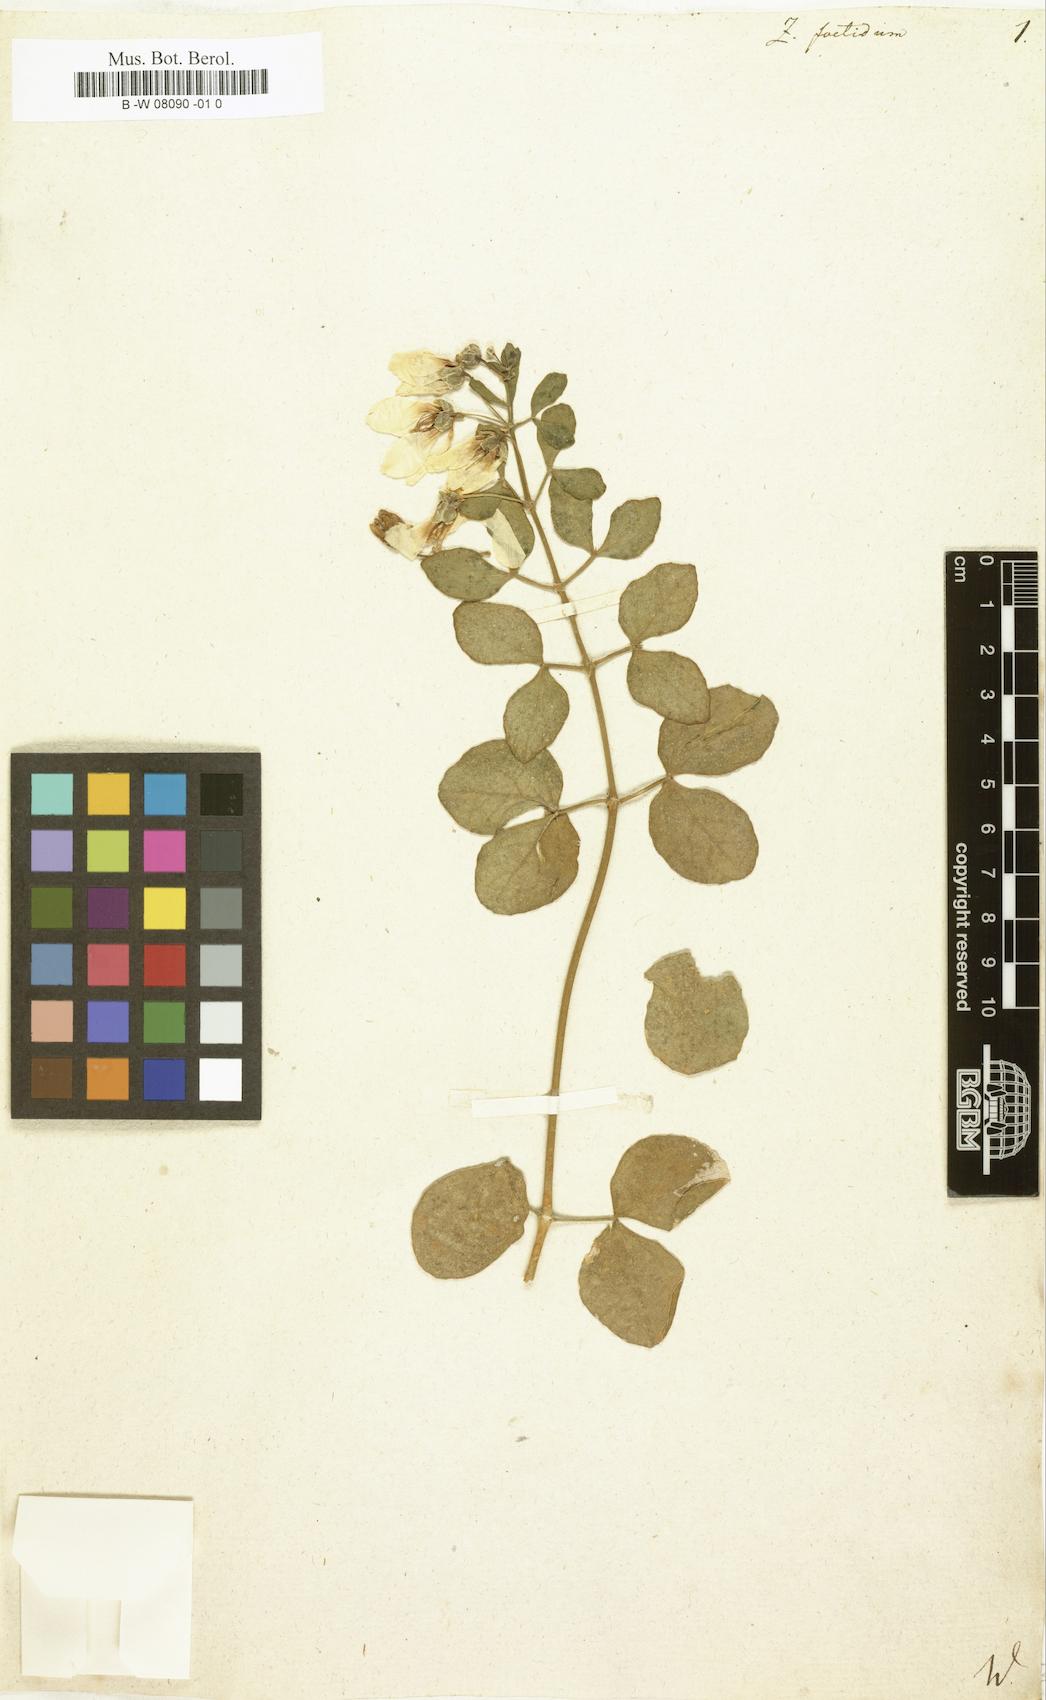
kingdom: Plantae
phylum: Tracheophyta
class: Magnoliopsida
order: Zygophyllales
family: Zygophyllaceae
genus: Roepera
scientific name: Roepera debilis
